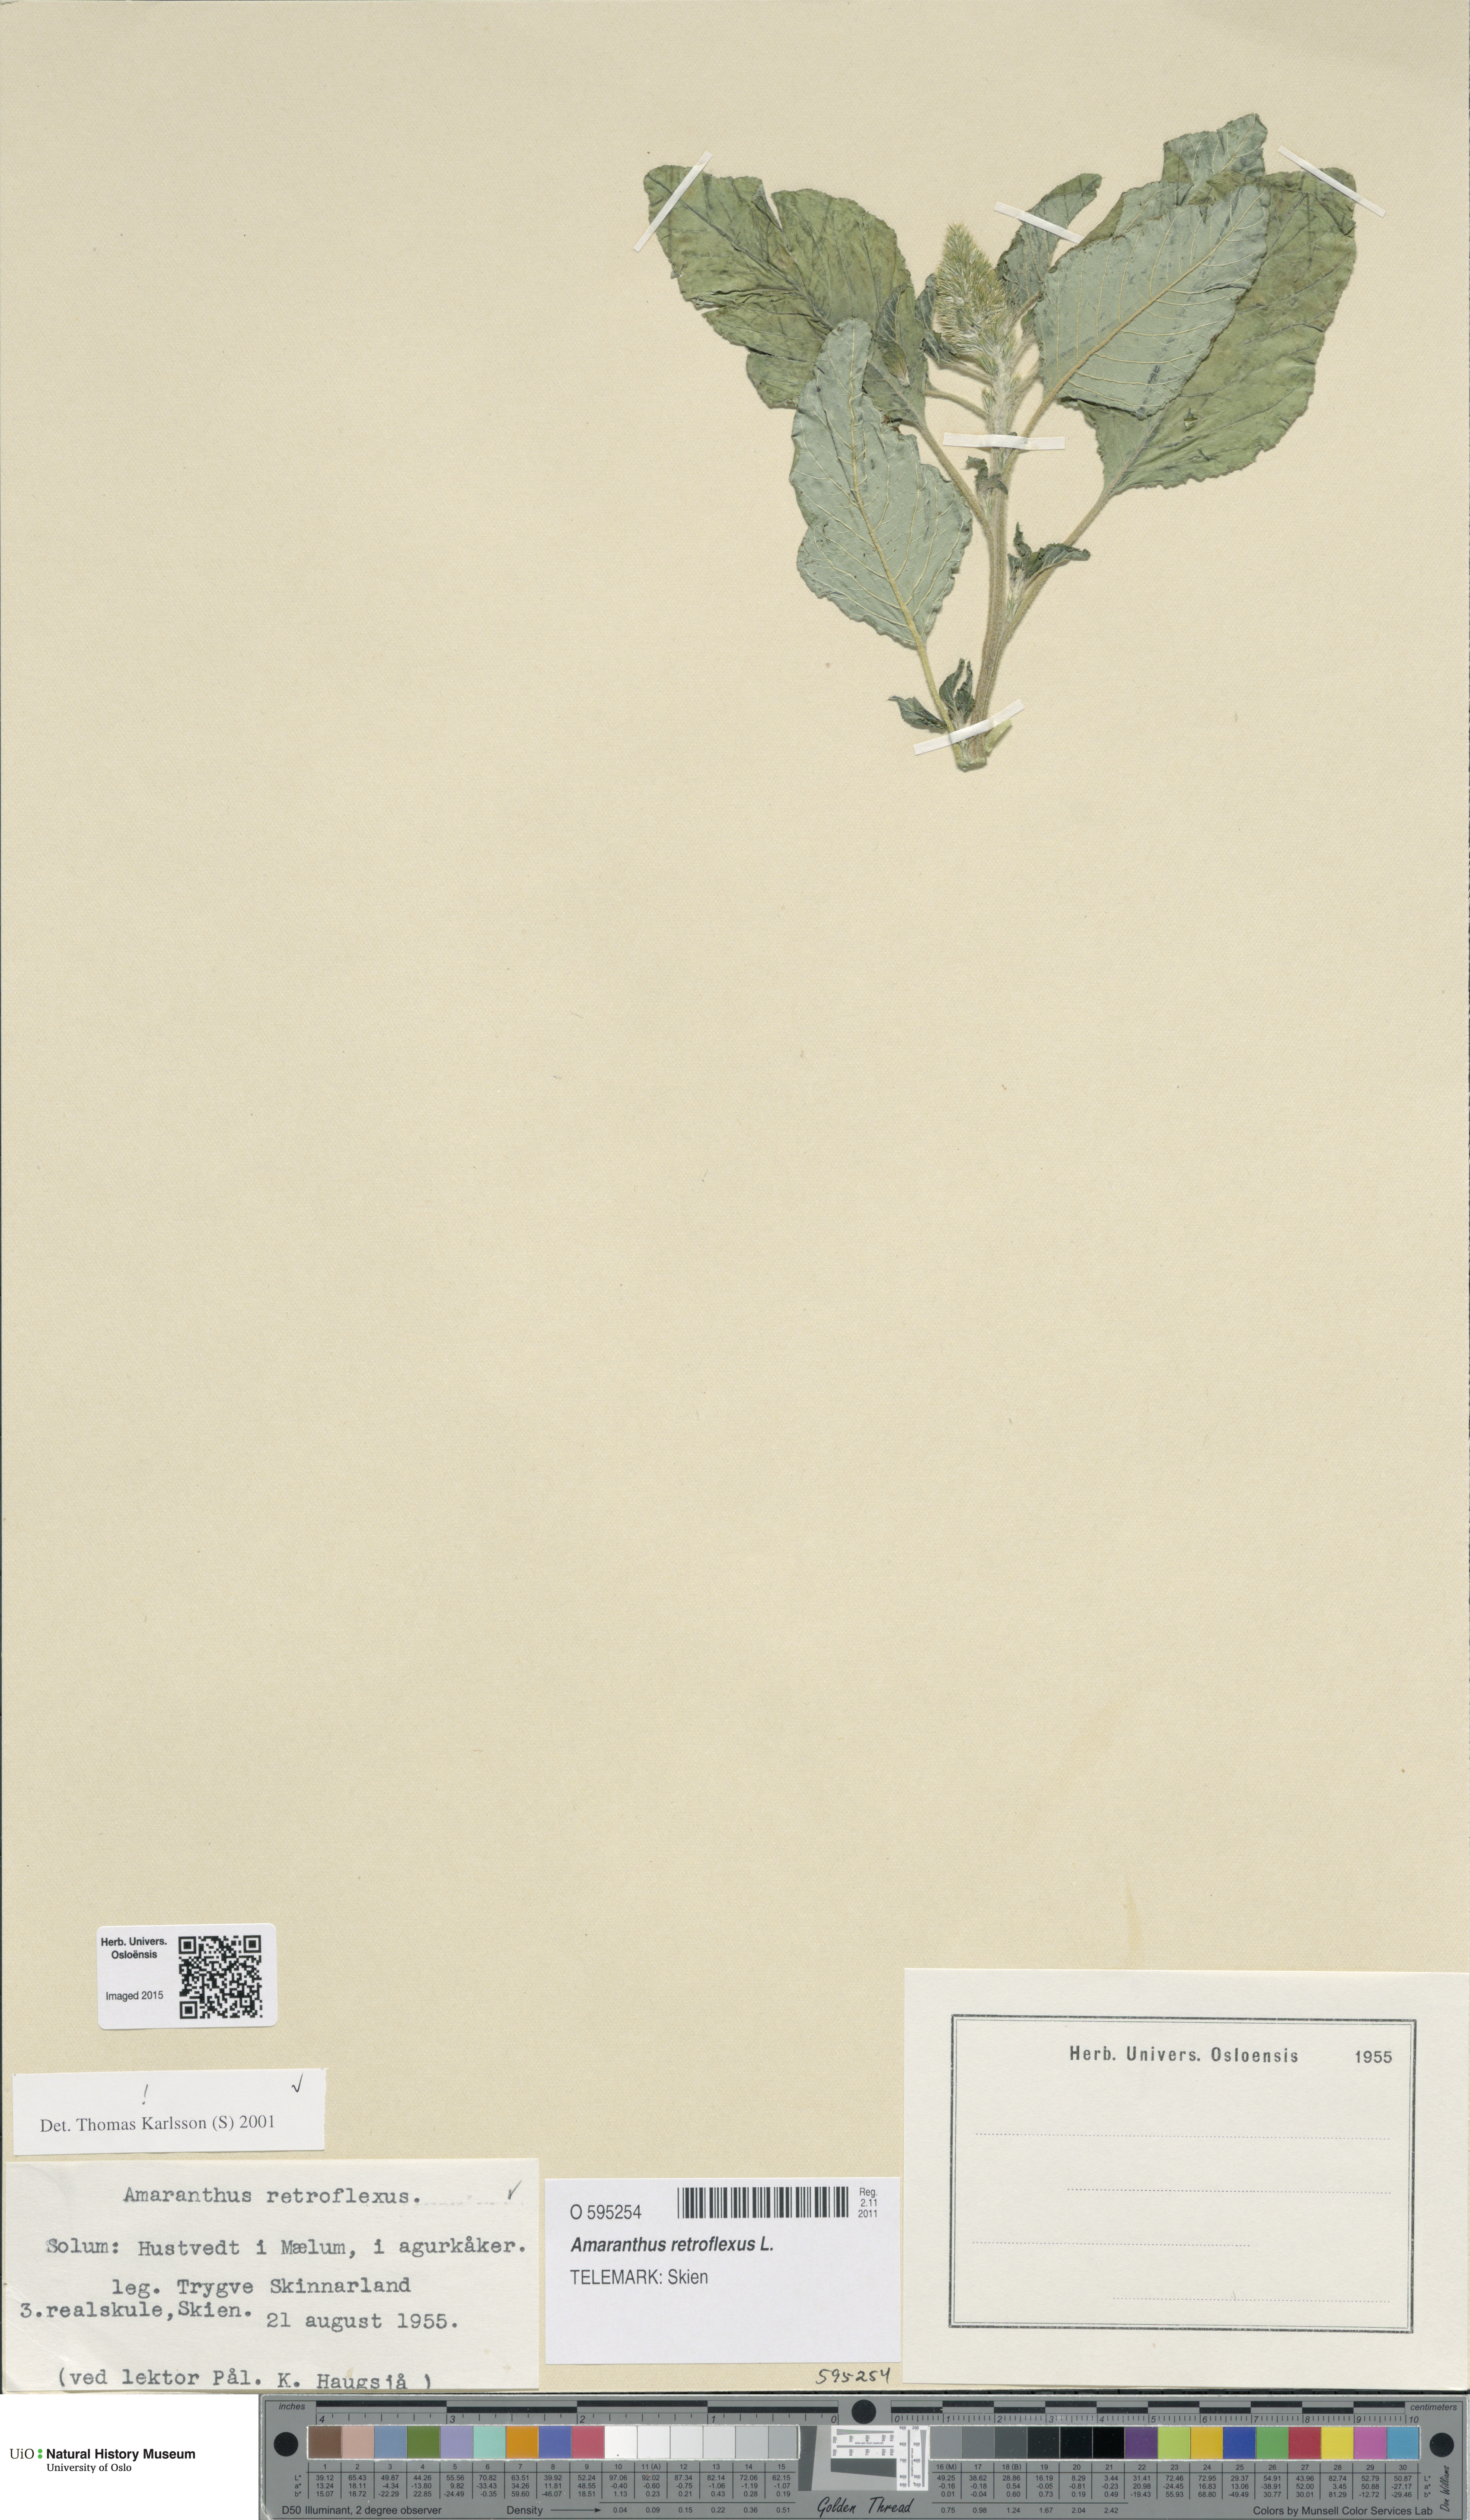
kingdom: Plantae
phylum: Tracheophyta
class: Magnoliopsida
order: Caryophyllales
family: Amaranthaceae
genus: Amaranthus
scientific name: Amaranthus retroflexus
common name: Redroot amaranth
